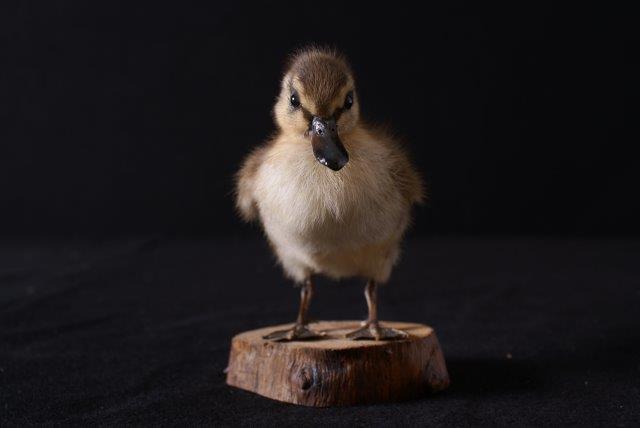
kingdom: Animalia
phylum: Chordata
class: Aves
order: Anseriformes
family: Anatidae
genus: Anas
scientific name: Anas platyrhynchos
